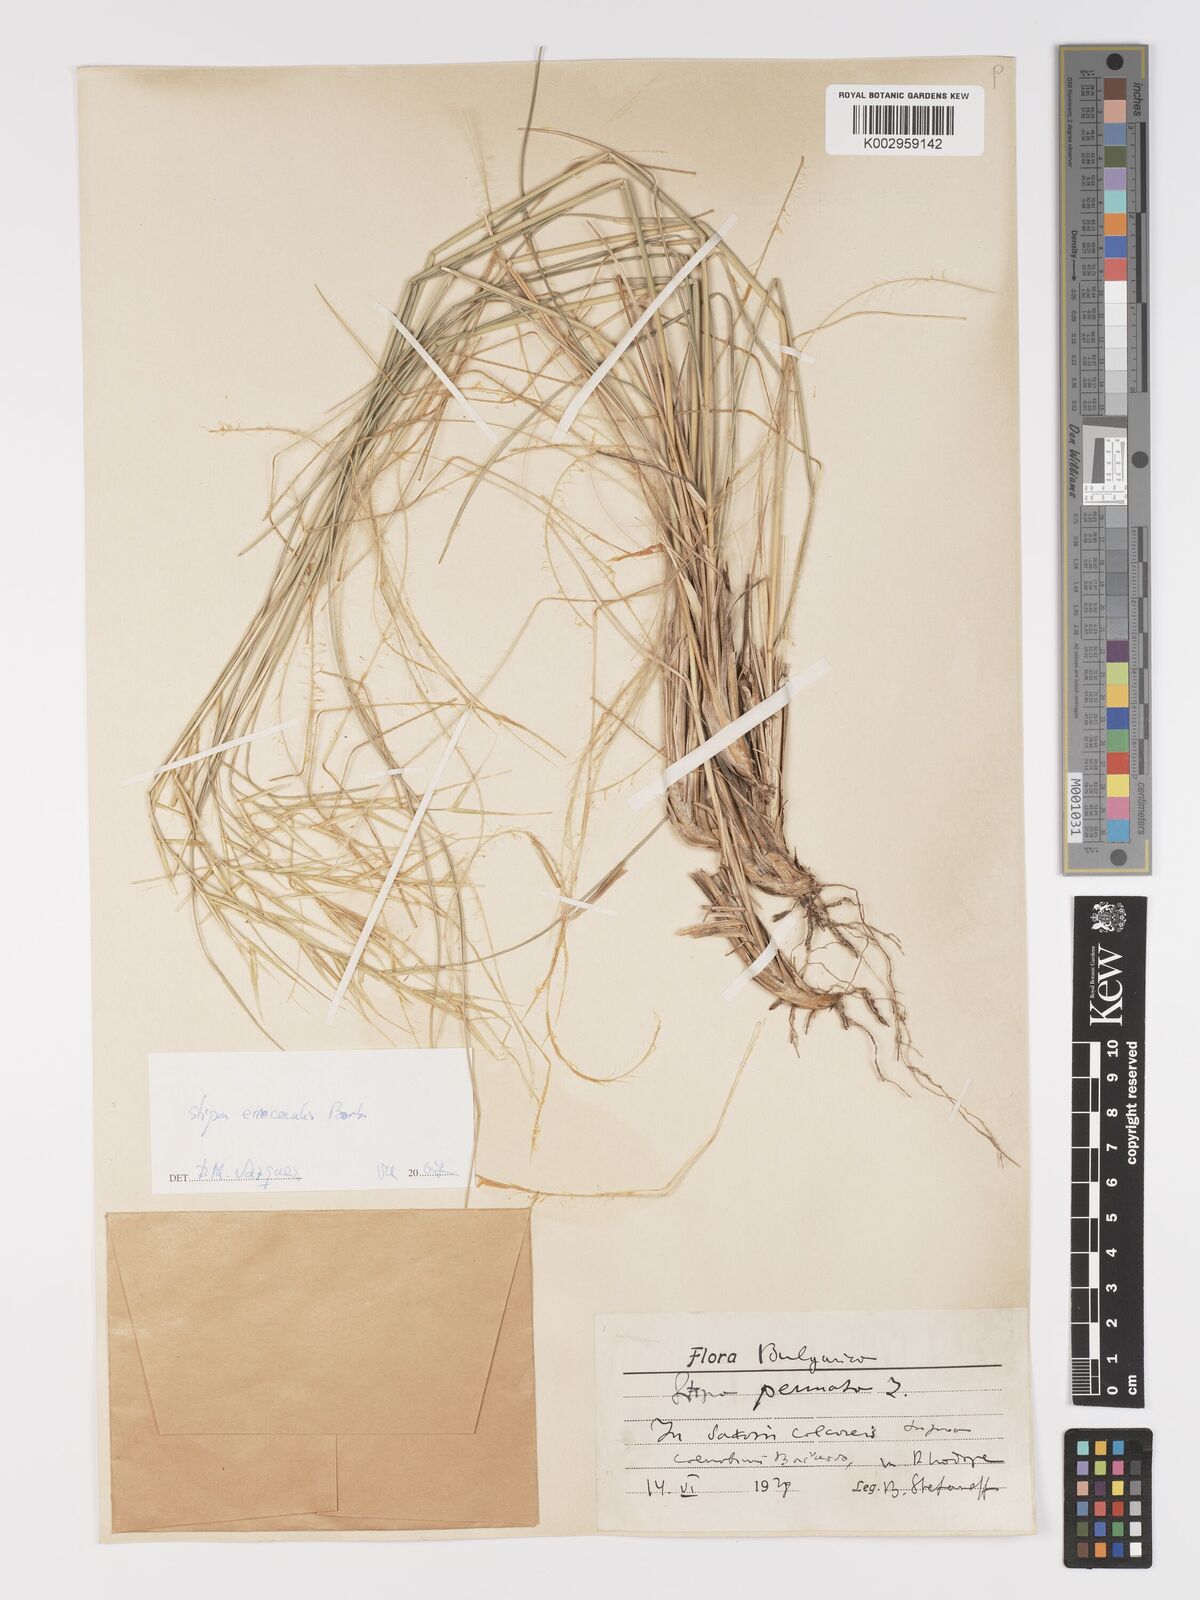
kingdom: Plantae
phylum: Tracheophyta
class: Liliopsida
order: Poales
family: Poaceae
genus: Stipa
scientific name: Stipa pennata
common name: European feather grass
